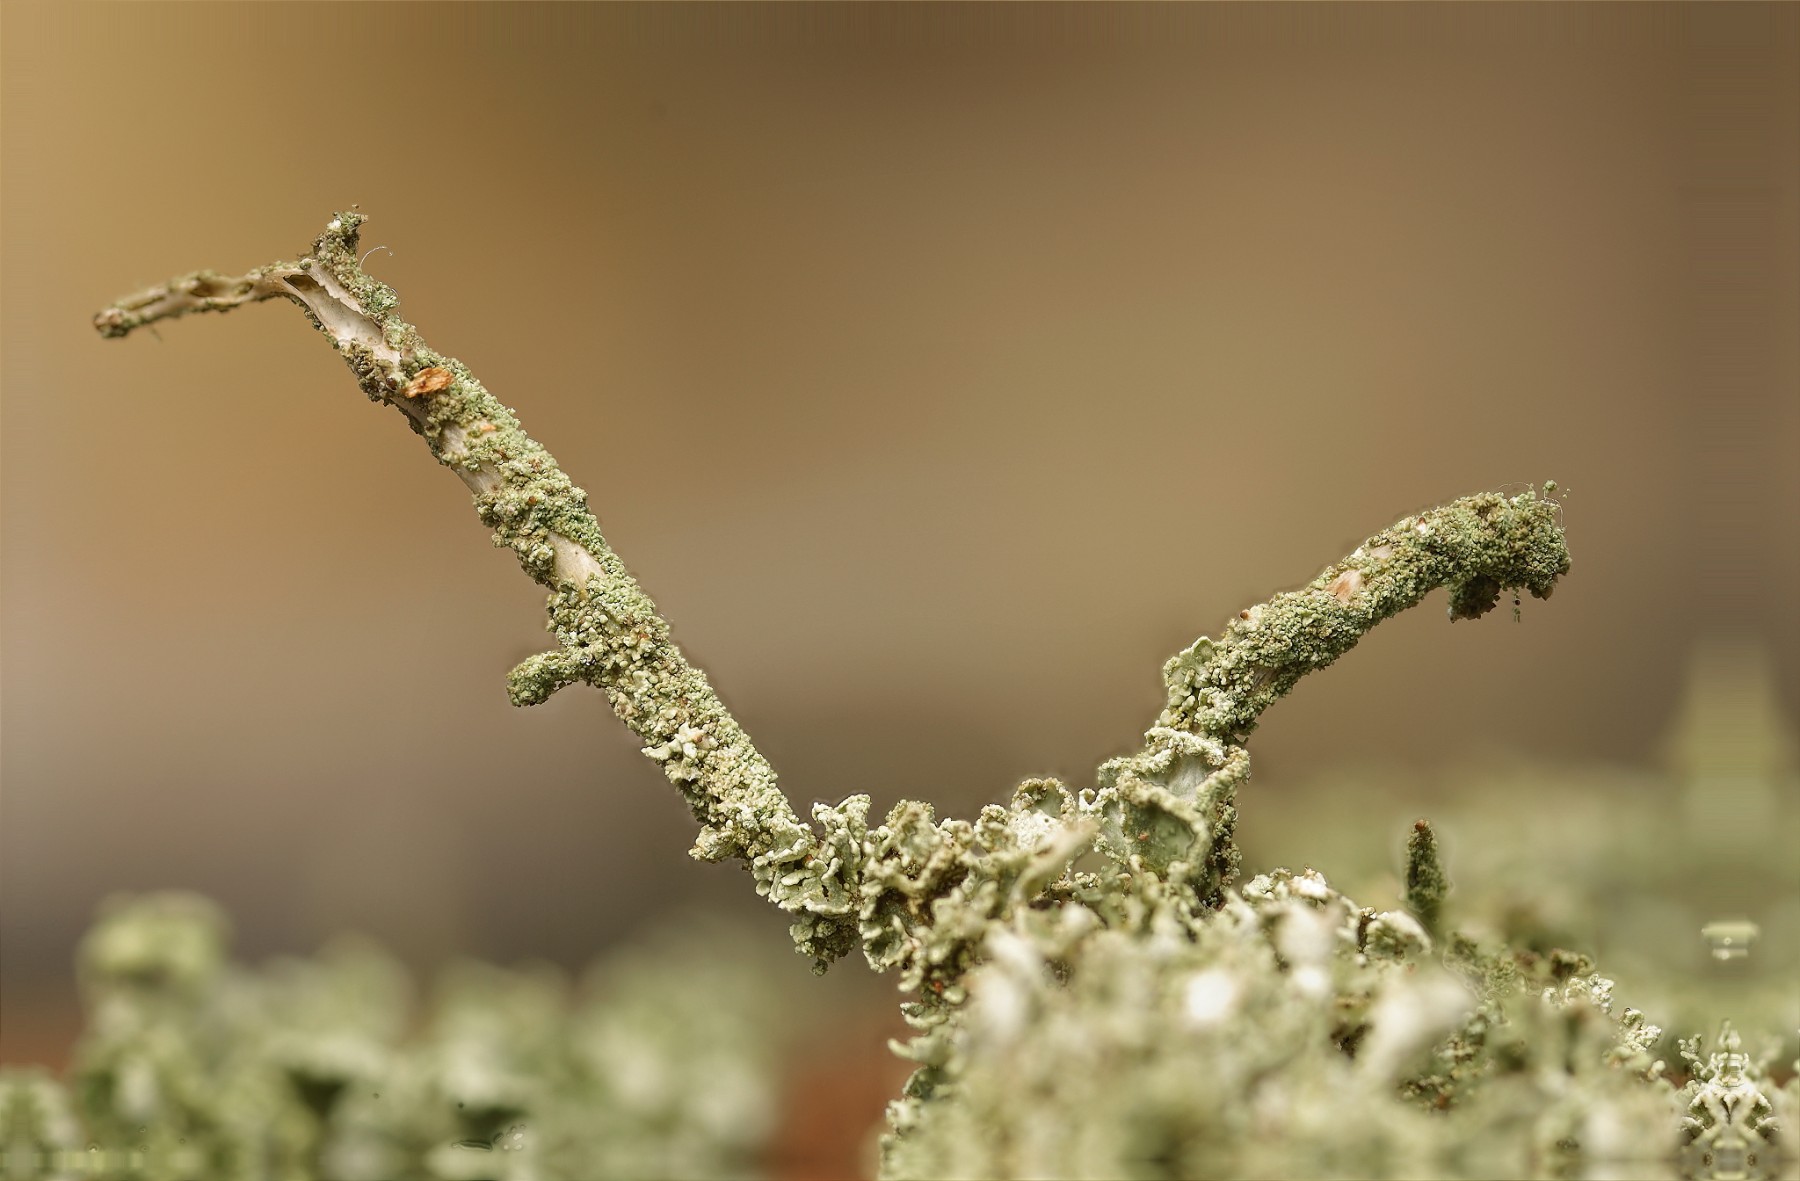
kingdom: Fungi
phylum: Ascomycota
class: Lecanoromycetes
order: Lecanorales
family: Cladoniaceae
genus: Cladonia
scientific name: Cladonia coniocraea
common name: træfods-bægerlav
